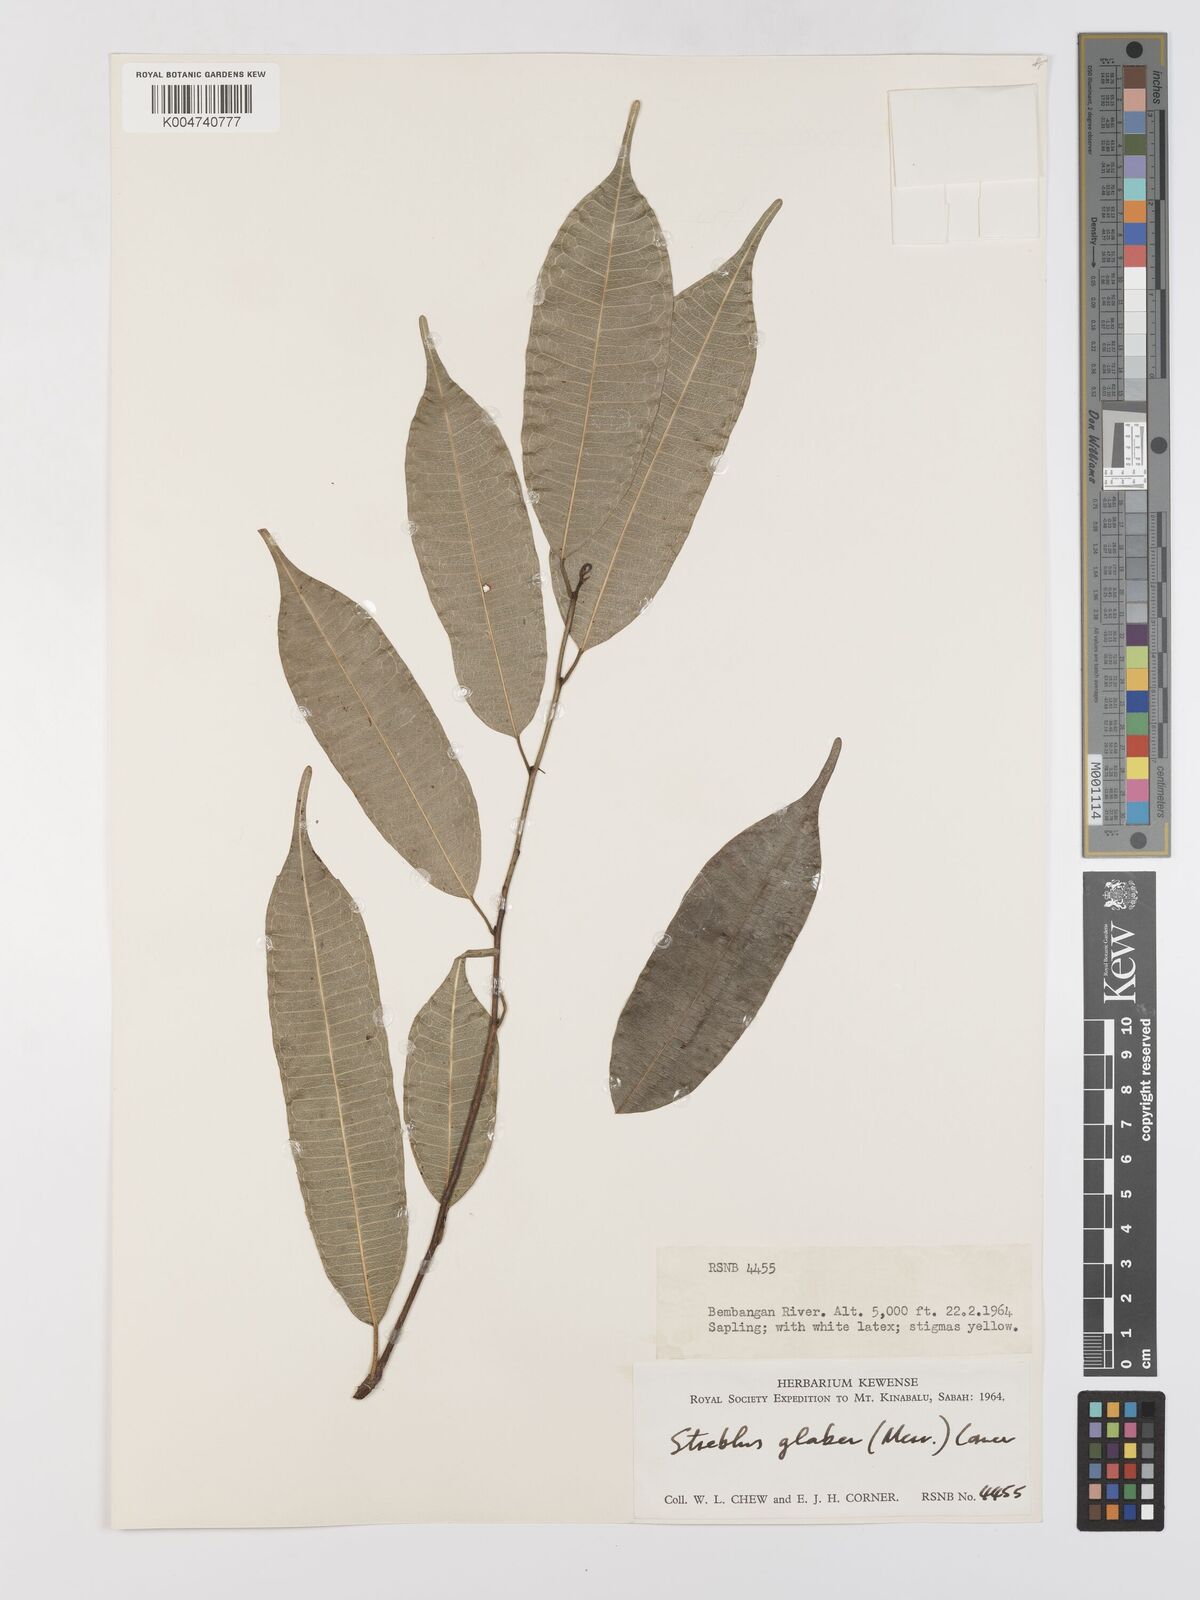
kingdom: Plantae
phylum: Tracheophyta
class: Magnoliopsida
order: Rosales
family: Moraceae
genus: Paratrophis
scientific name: Paratrophis glabra
